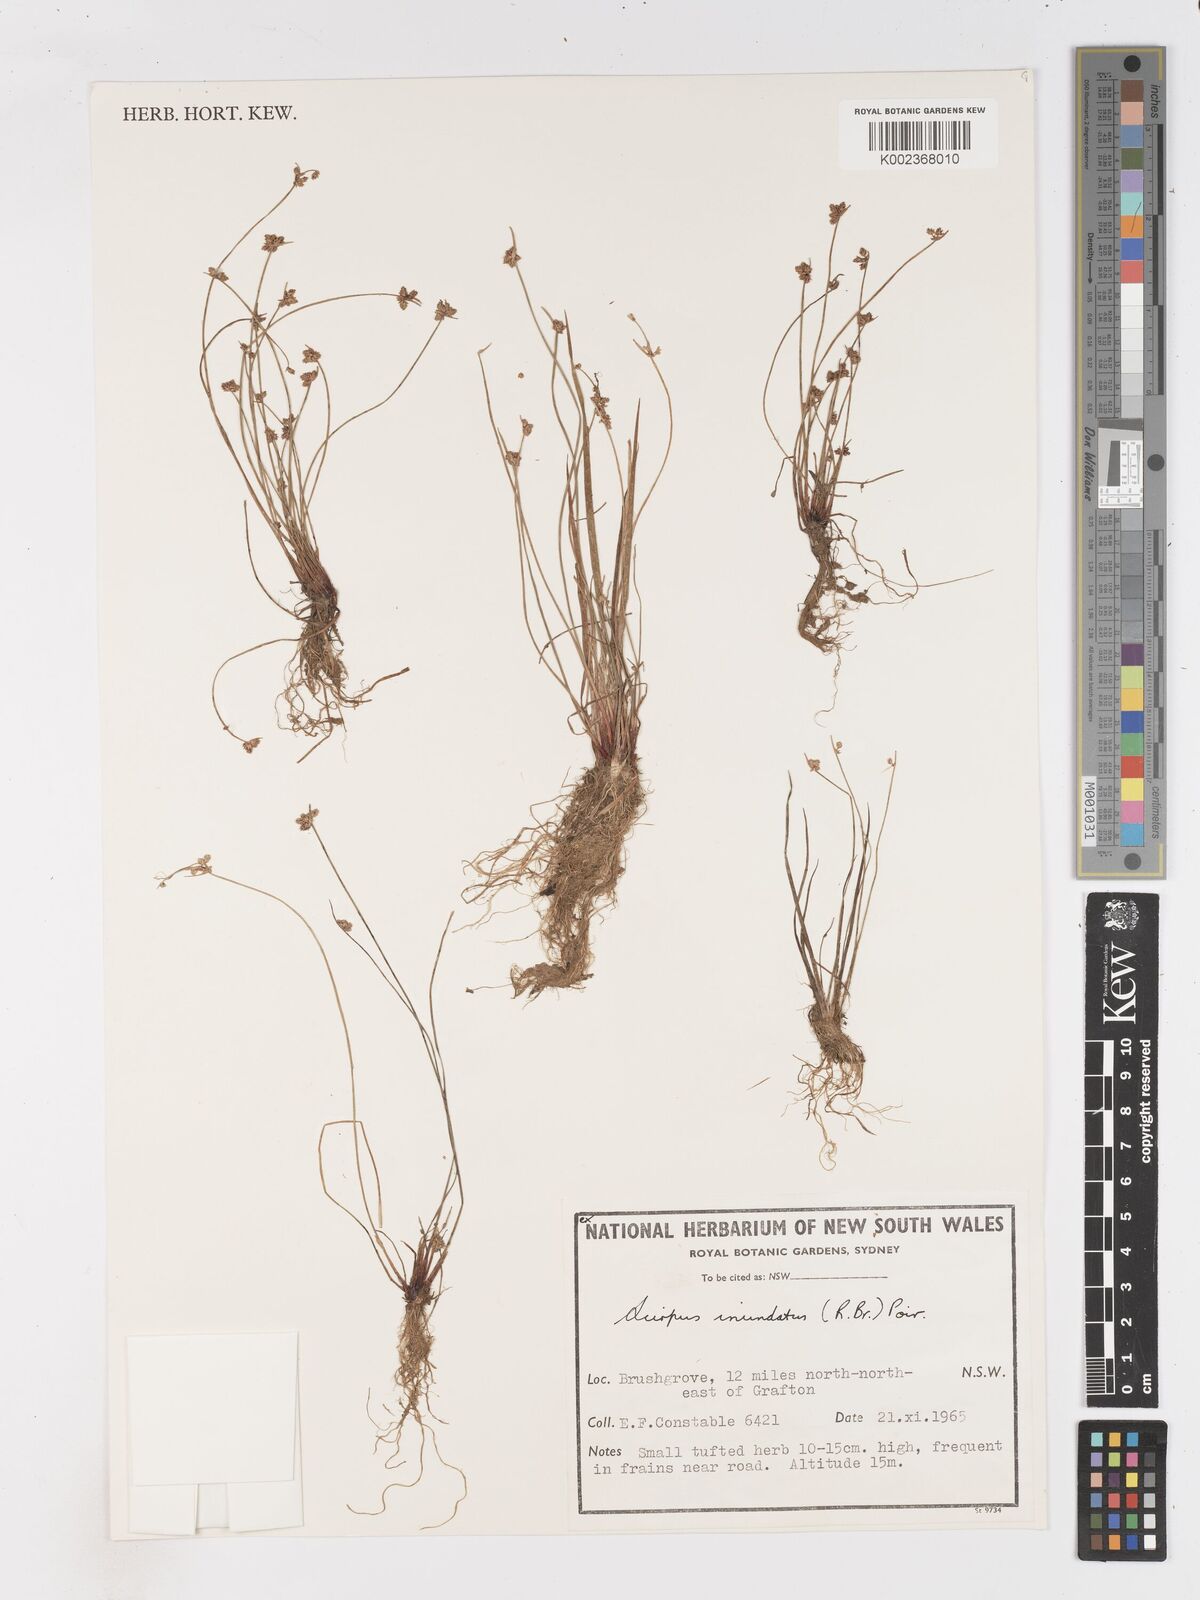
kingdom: Plantae
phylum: Tracheophyta
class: Liliopsida
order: Poales
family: Cyperaceae
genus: Isolepis
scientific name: Isolepis inundata
